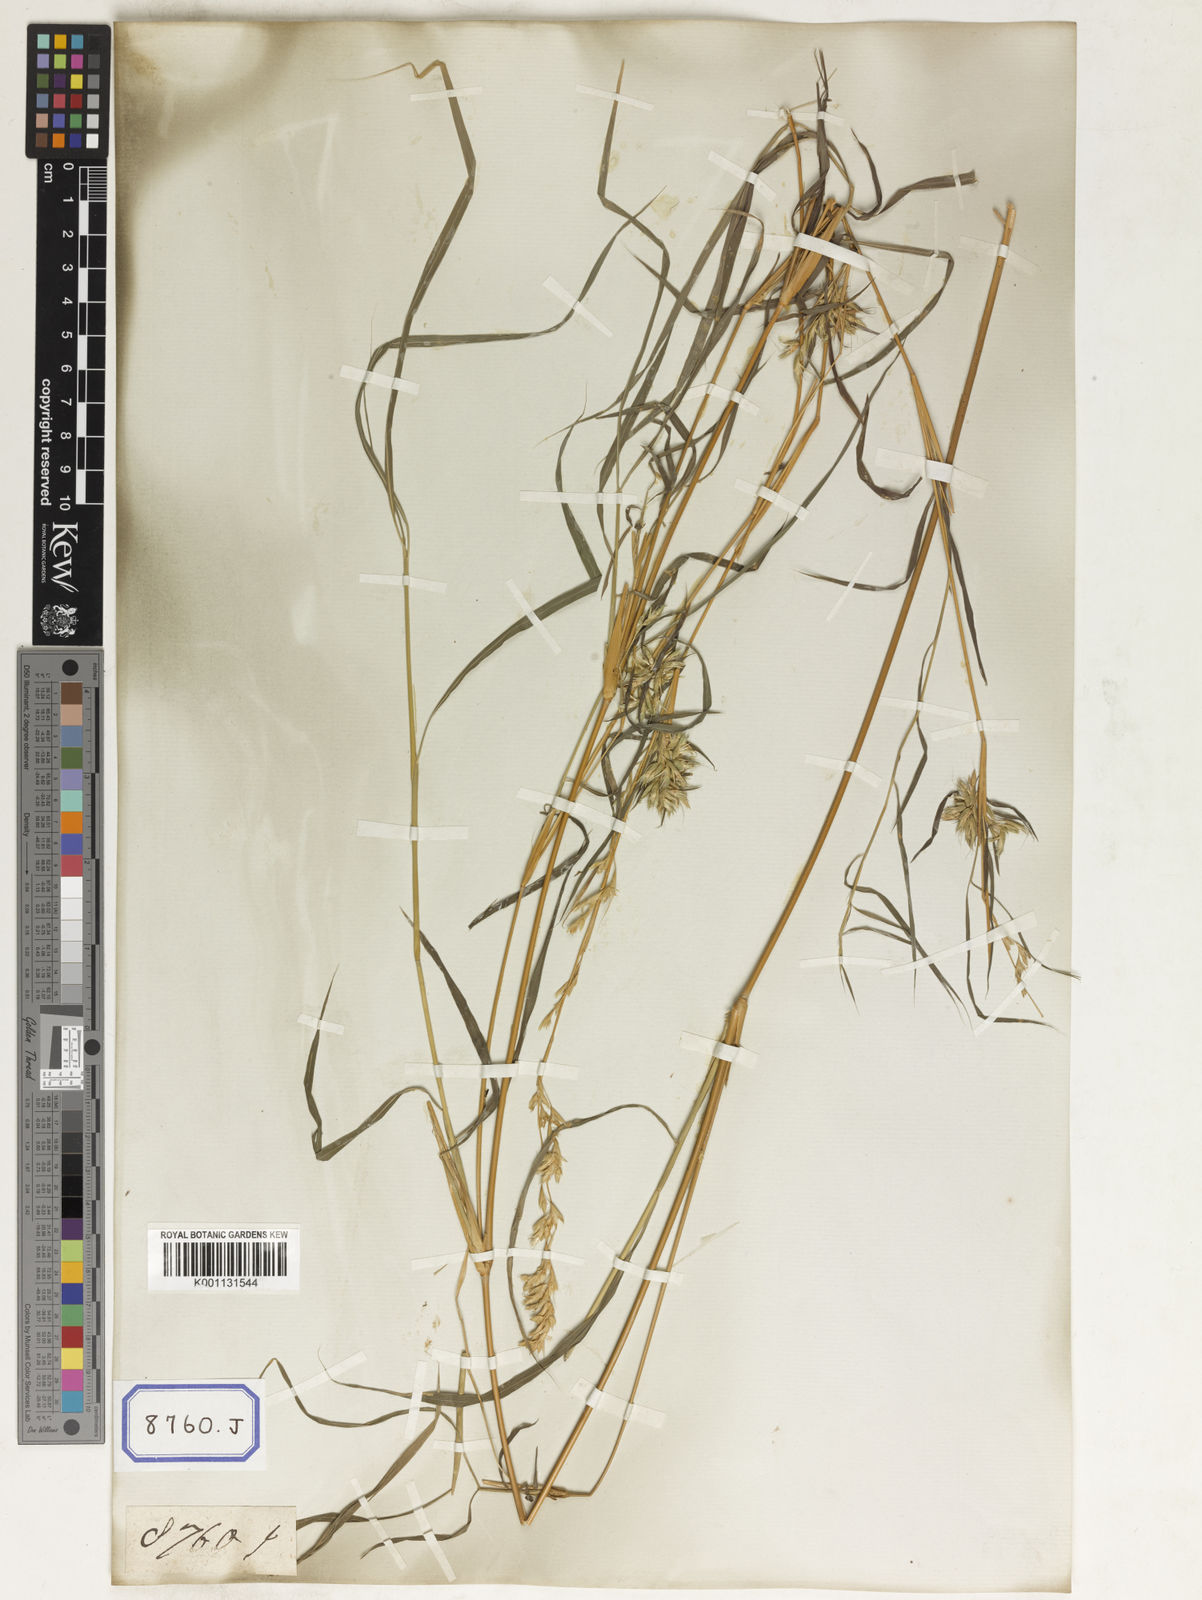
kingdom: Plantae
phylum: Tracheophyta
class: Liliopsida
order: Poales
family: Poaceae
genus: Apluda
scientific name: Apluda
